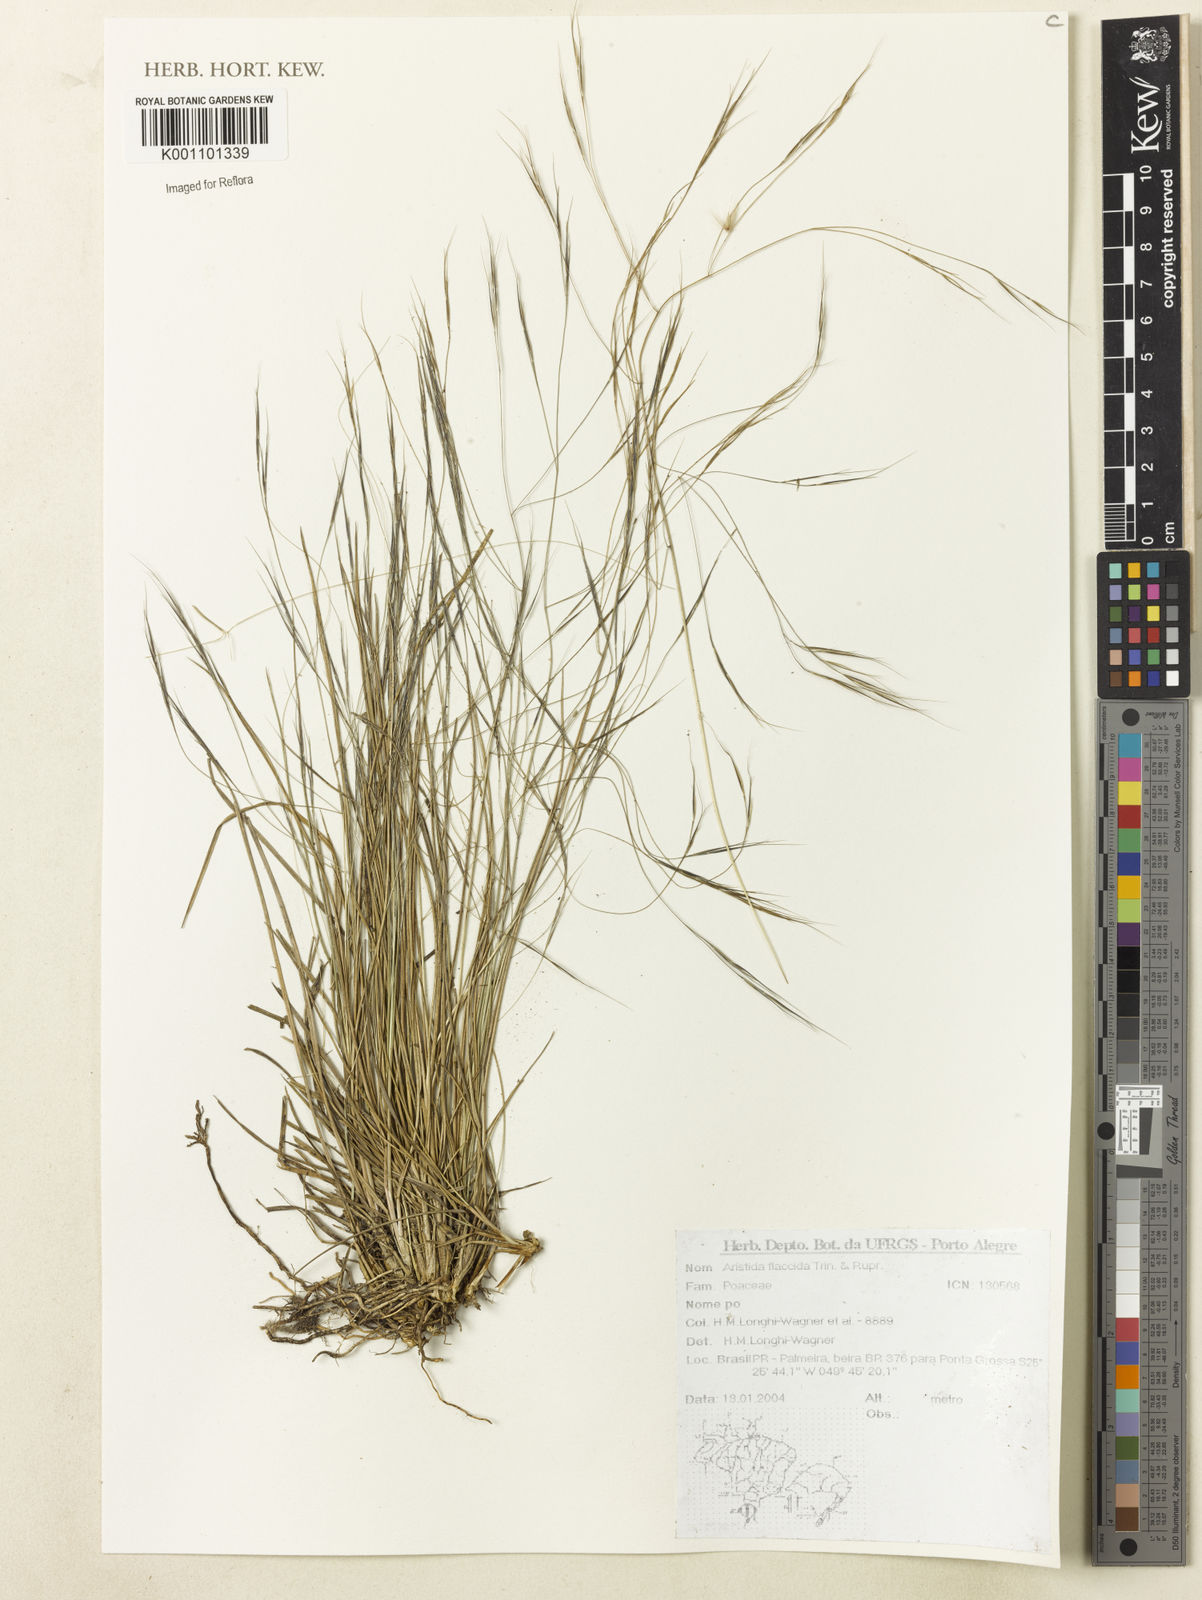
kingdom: Plantae
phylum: Tracheophyta
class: Liliopsida
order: Poales
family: Poaceae
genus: Aristida
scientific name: Aristida flaccida
